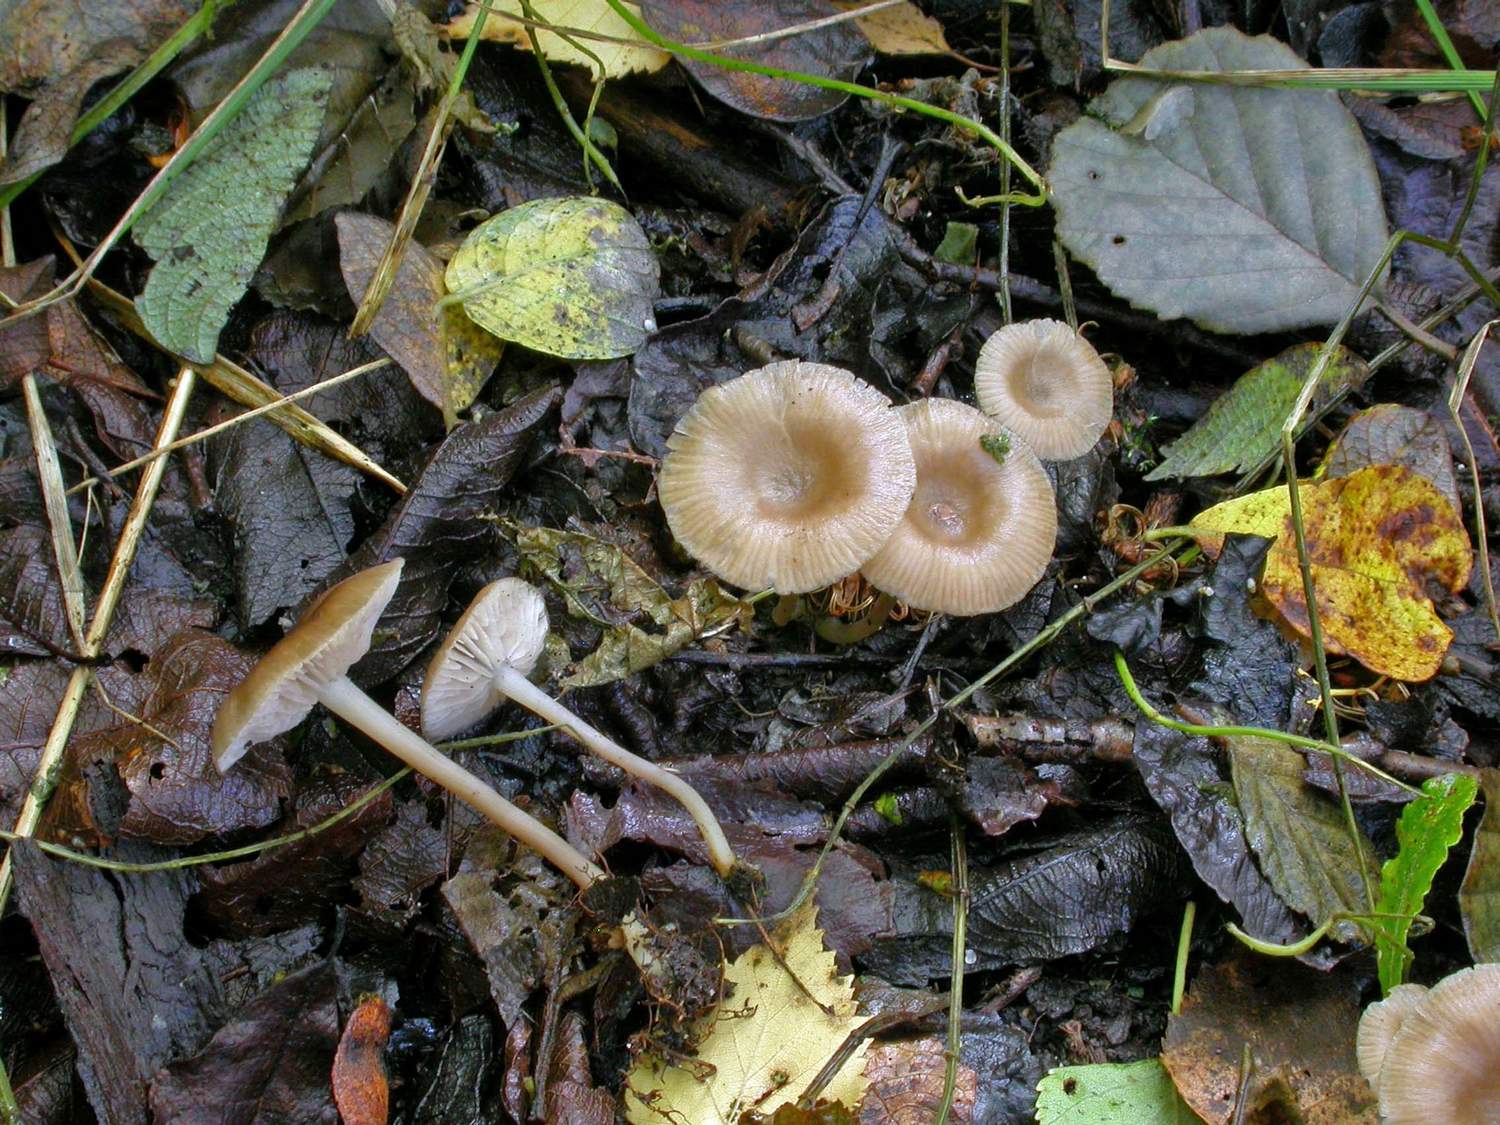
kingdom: Fungi
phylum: Basidiomycota
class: Agaricomycetes
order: Agaricales
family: Entolomataceae
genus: Entoloma
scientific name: Entoloma politum
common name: poleret rødblad
